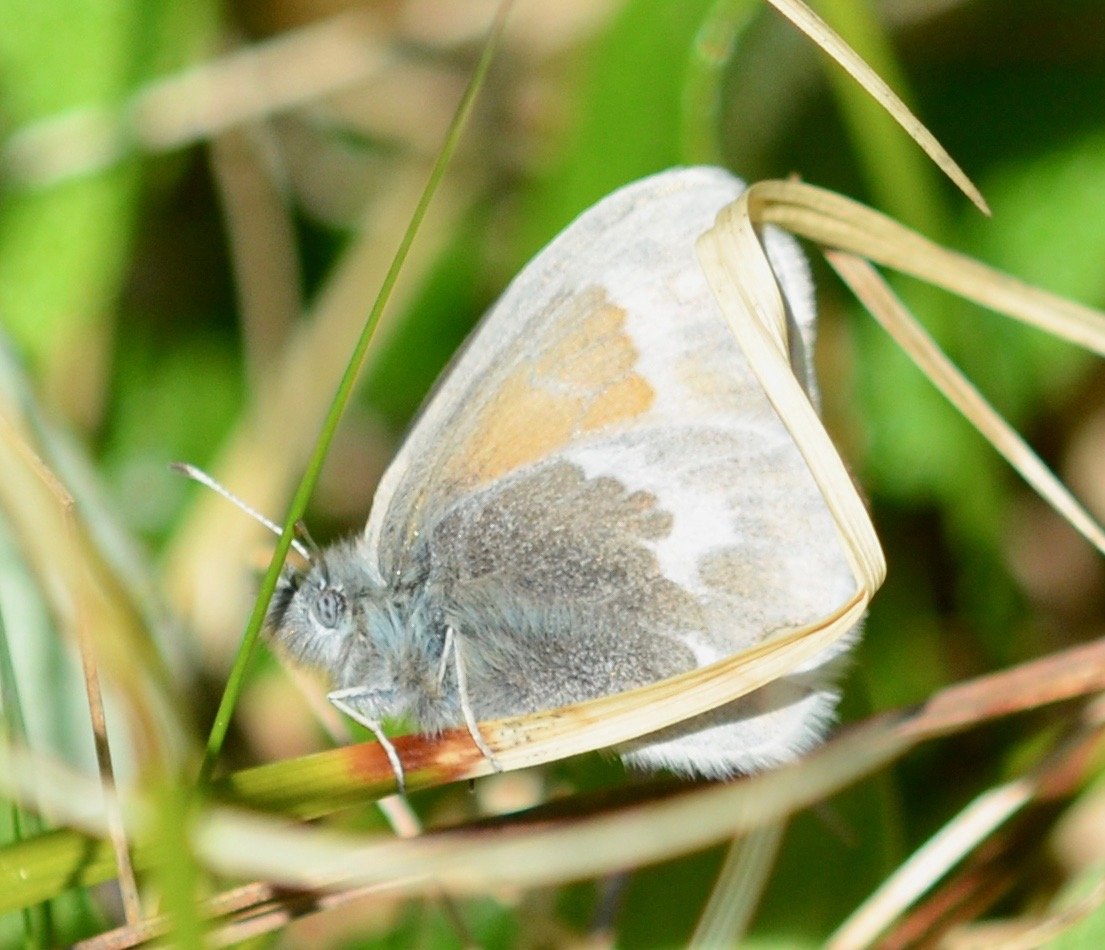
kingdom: Animalia
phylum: Arthropoda
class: Insecta
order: Lepidoptera
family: Nymphalidae
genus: Coenonympha
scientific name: Coenonympha tullia
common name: Large Heath
